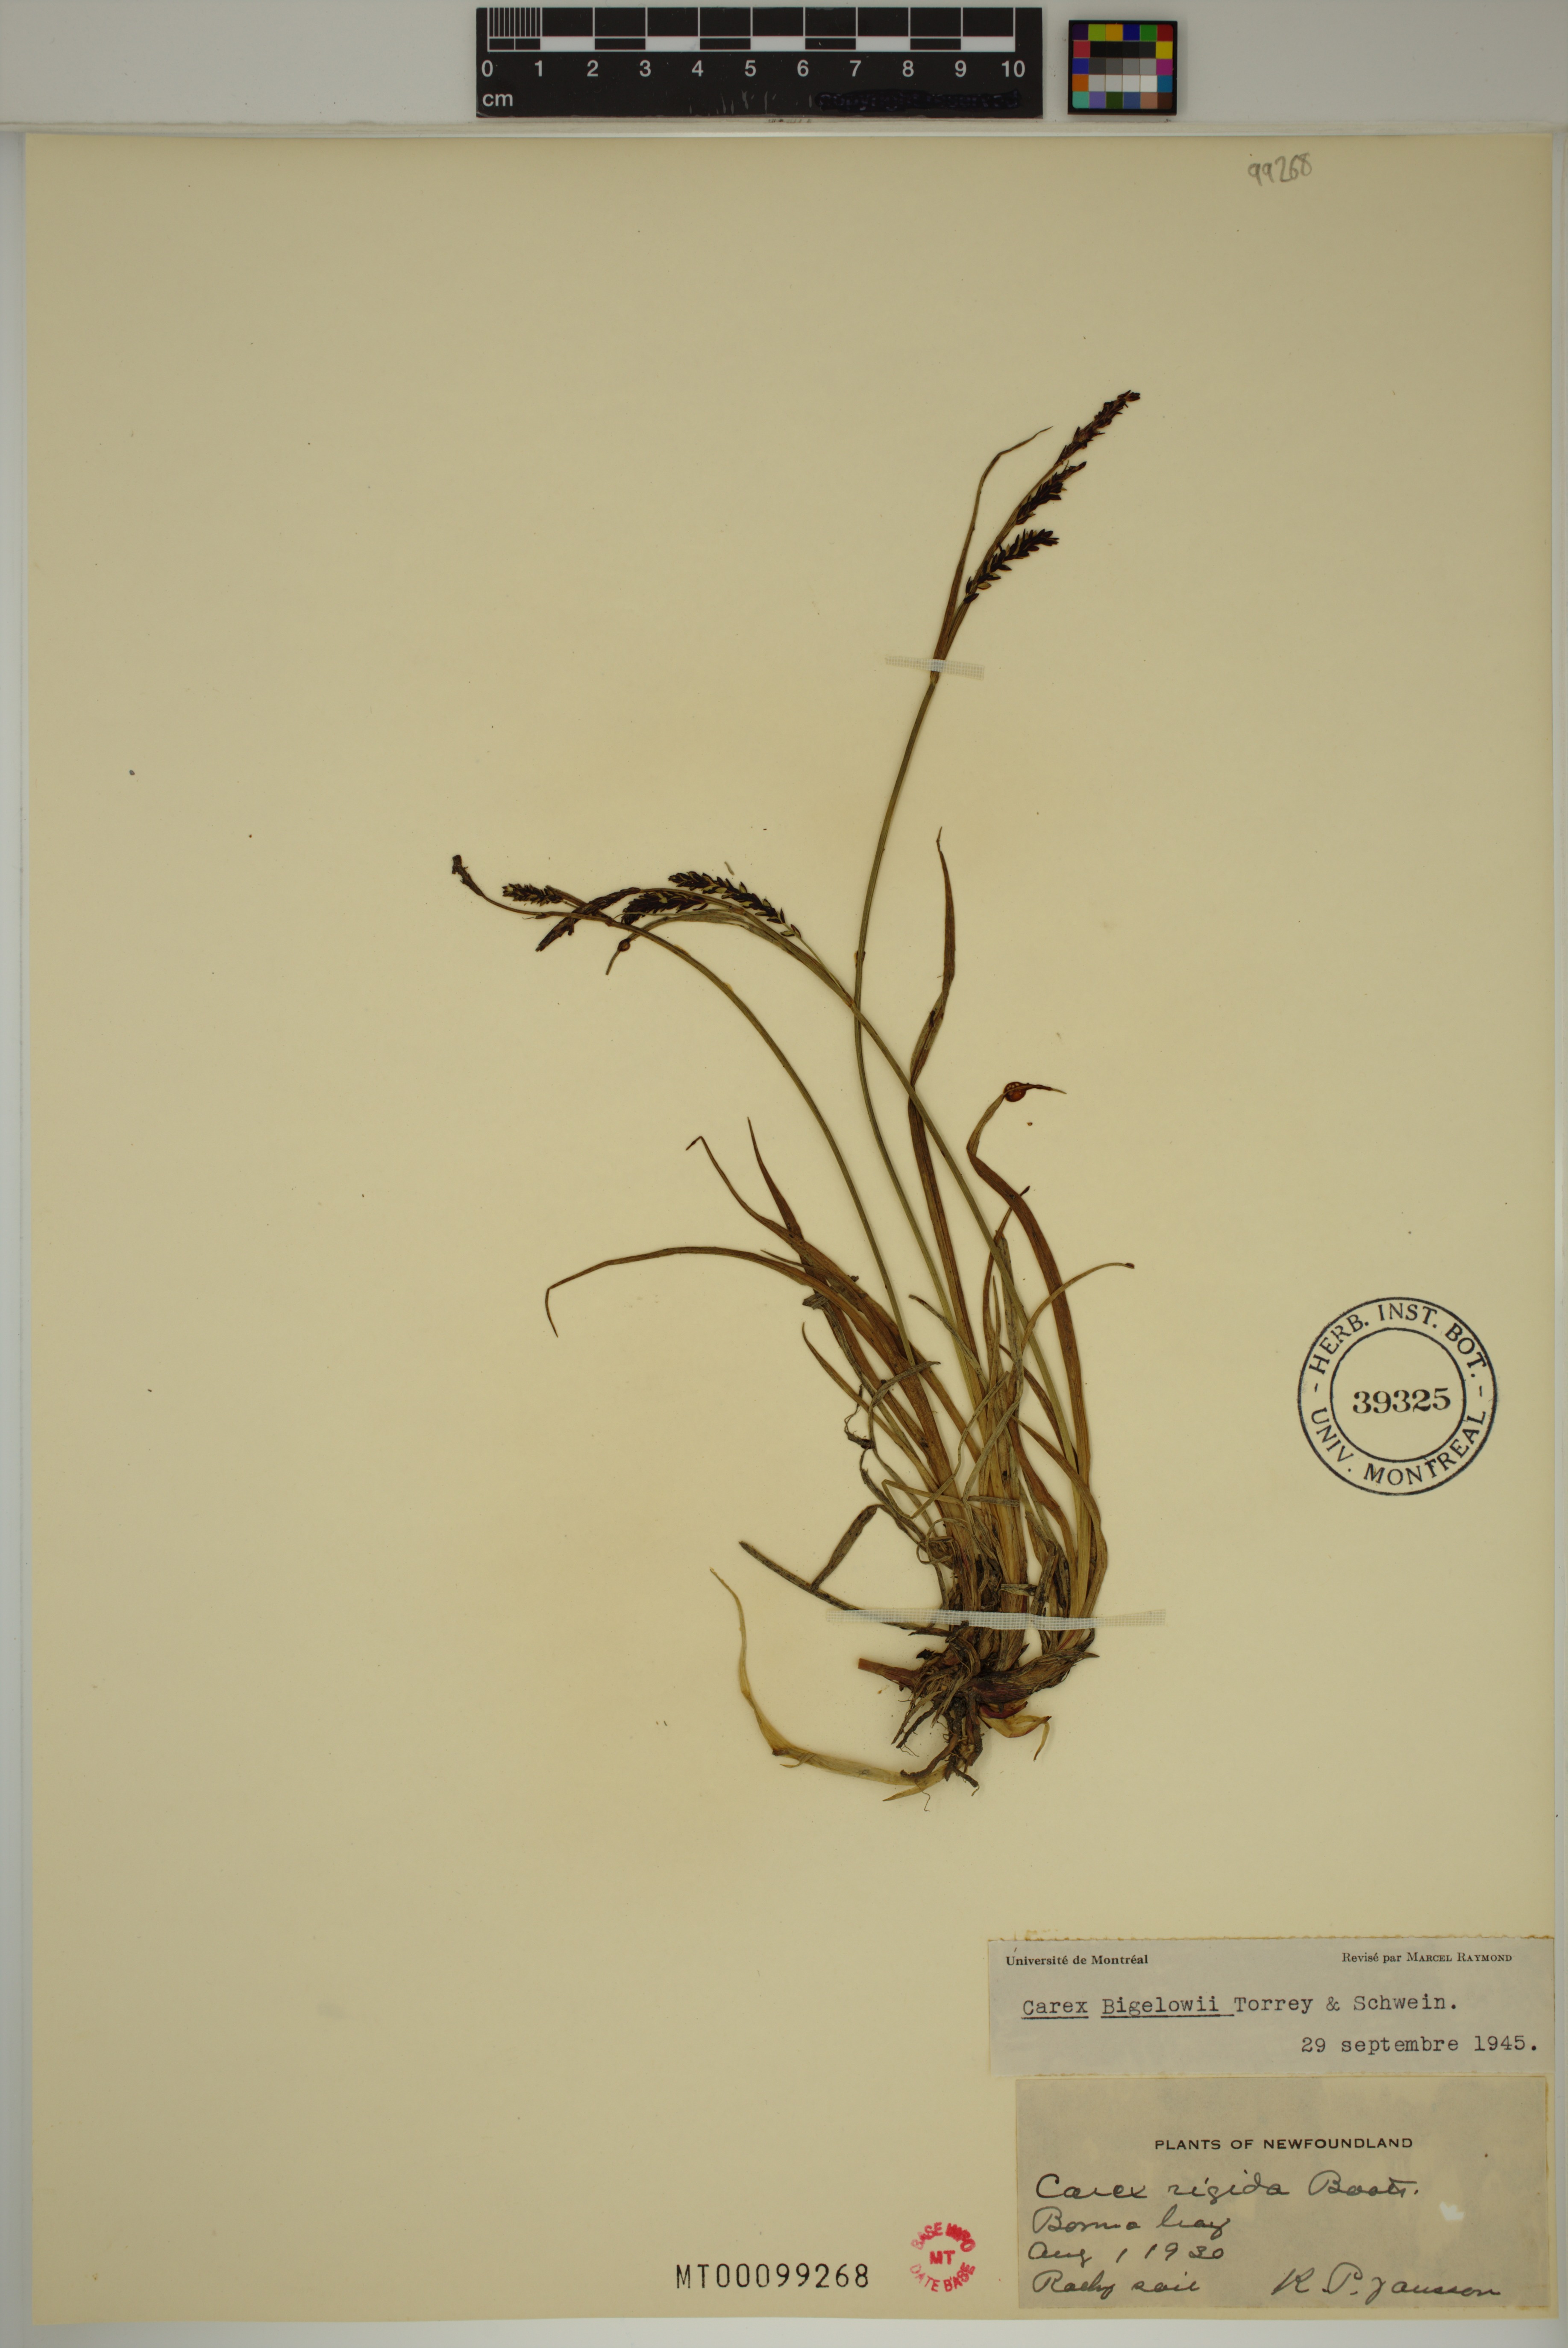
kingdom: Plantae
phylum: Tracheophyta
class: Liliopsida
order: Poales
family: Cyperaceae
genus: Carex
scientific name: Carex bigelowii
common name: Stiff sedge
